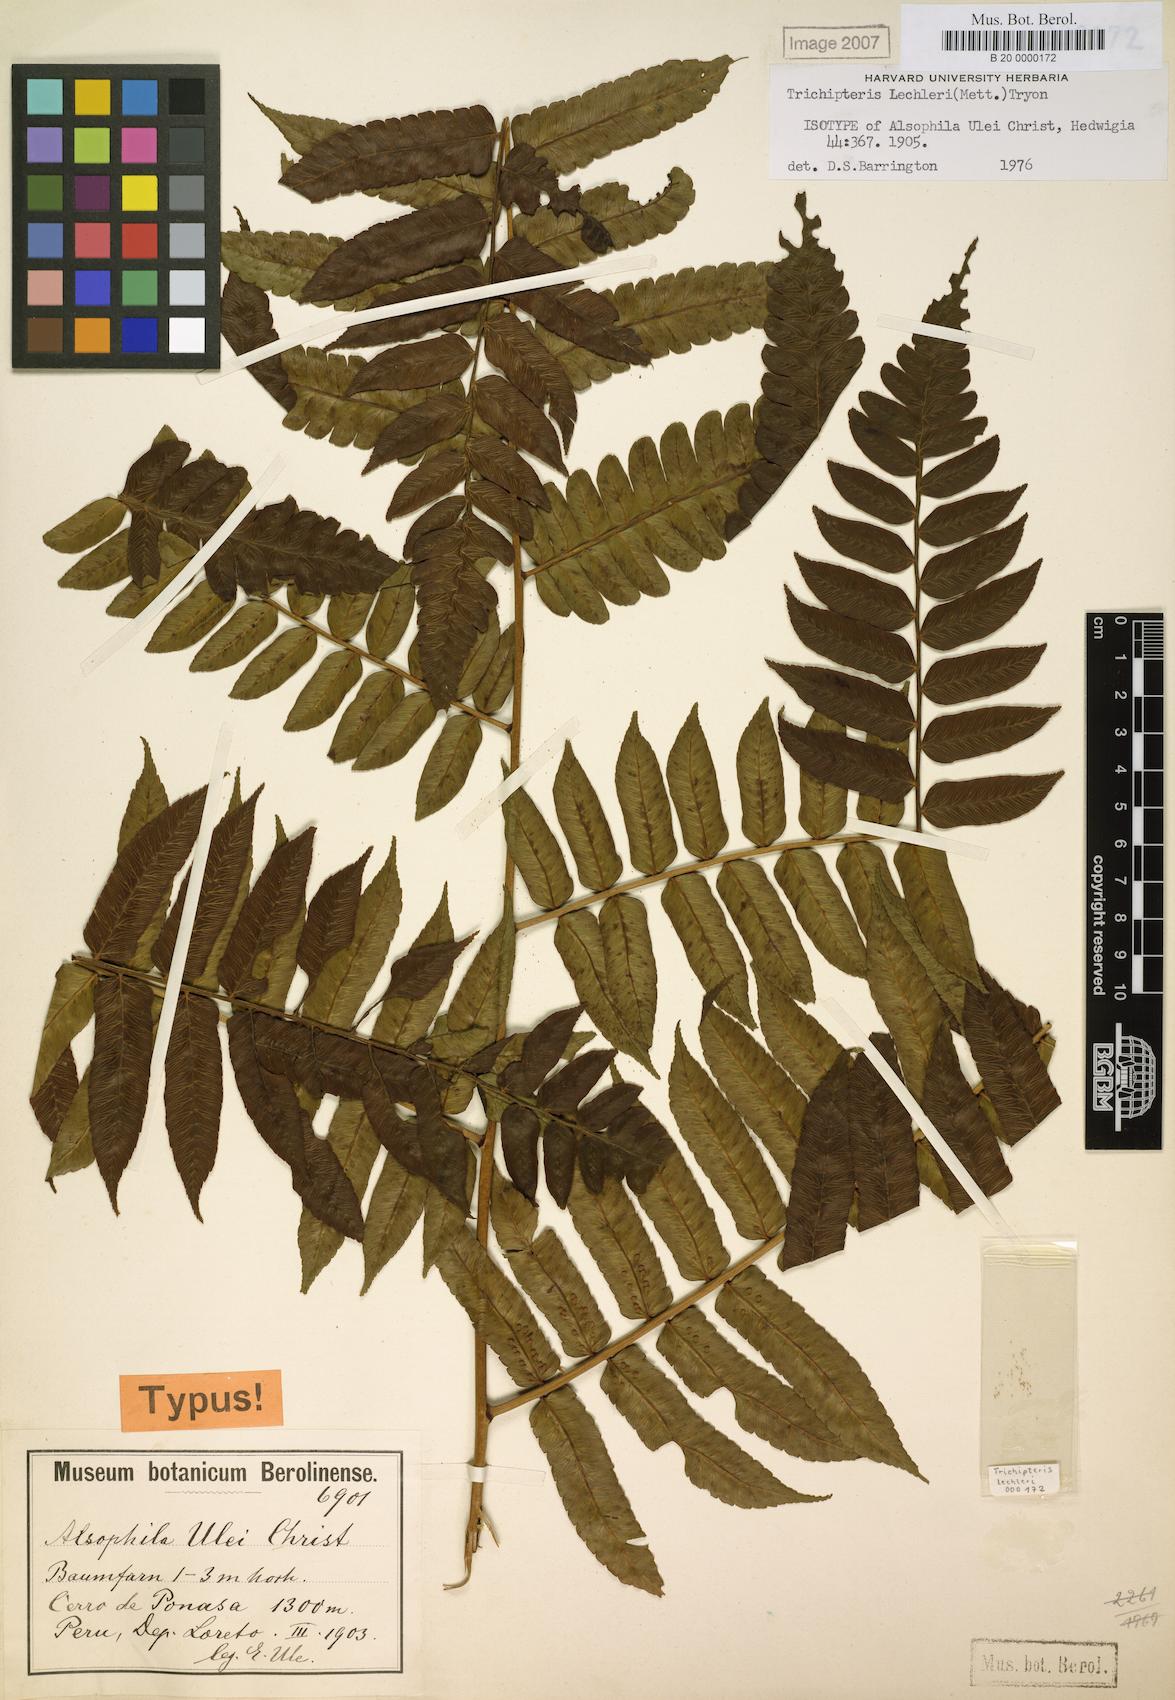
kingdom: Plantae
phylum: Tracheophyta
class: Polypodiopsida
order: Cyatheales
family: Cyatheaceae
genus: Cyathea
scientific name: Cyathea ulei
